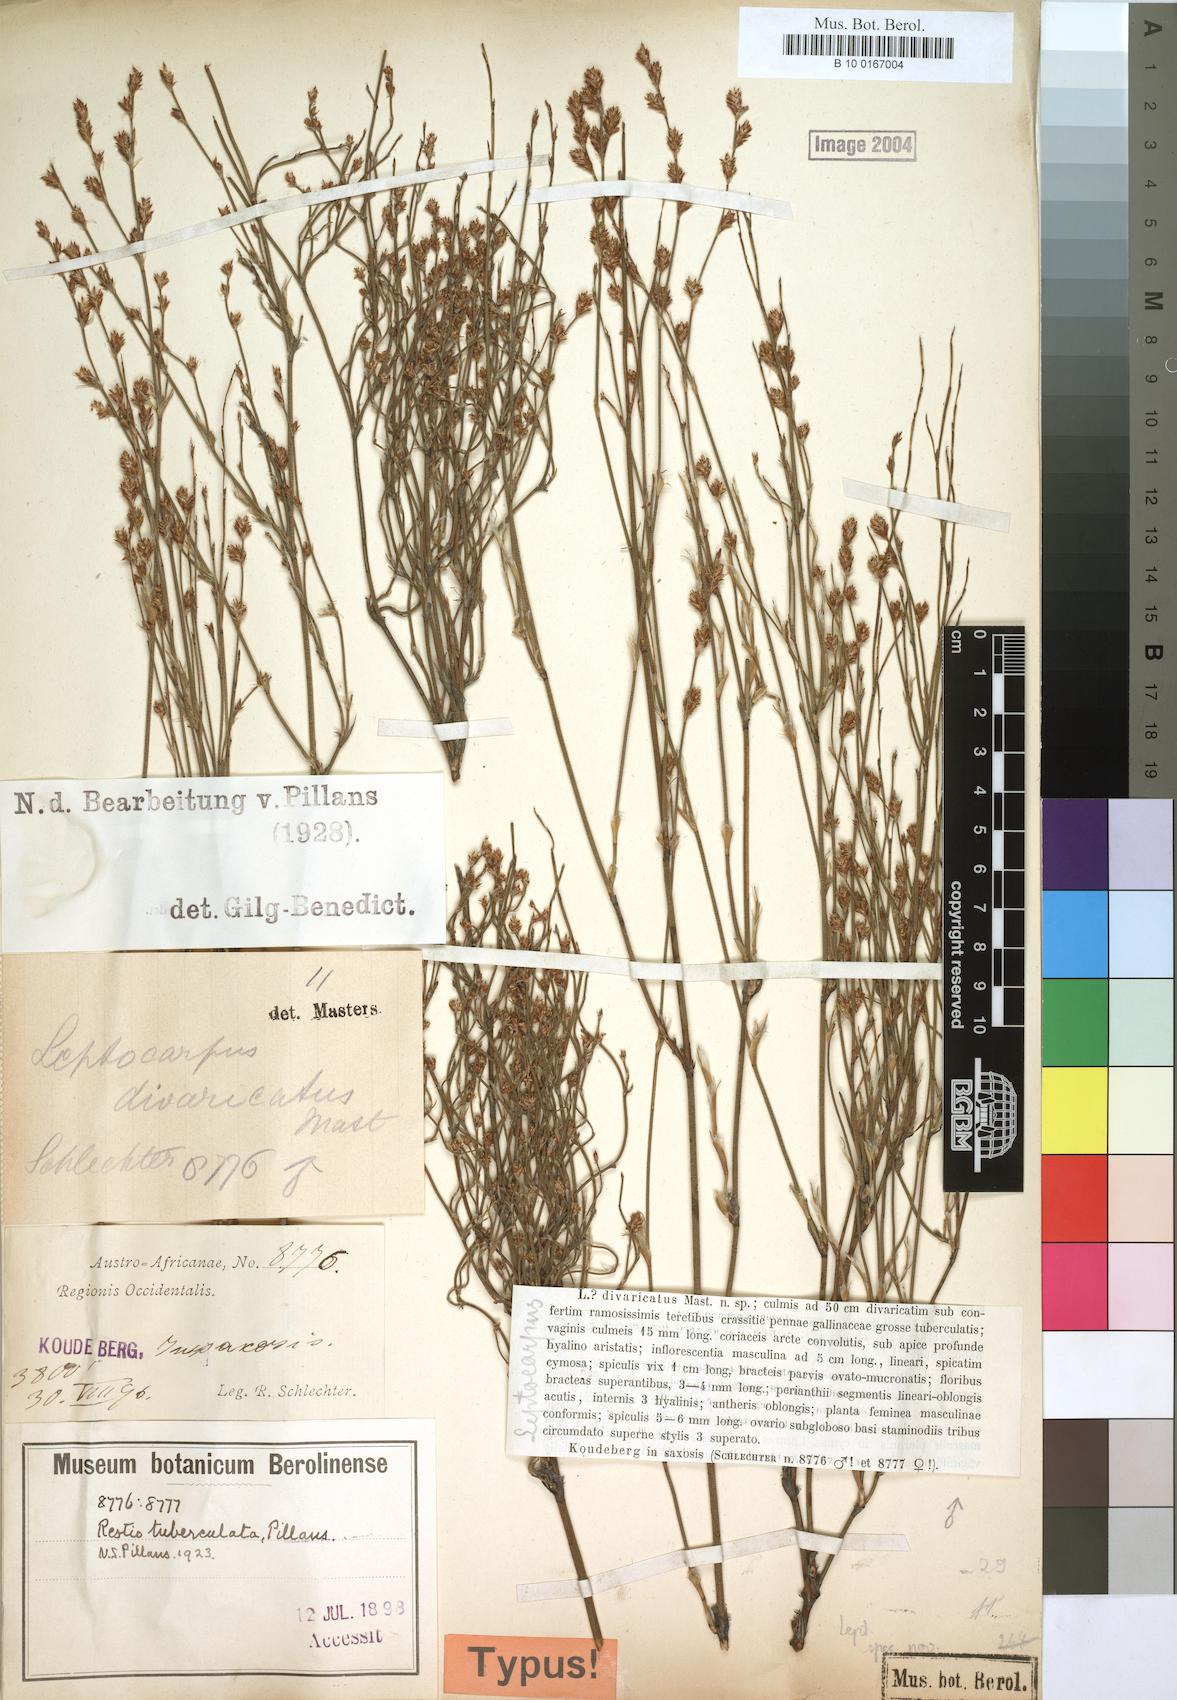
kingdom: Plantae
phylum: Tracheophyta
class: Liliopsida
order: Poales
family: Restionaceae
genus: Restio
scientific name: Restio tuberculatus
